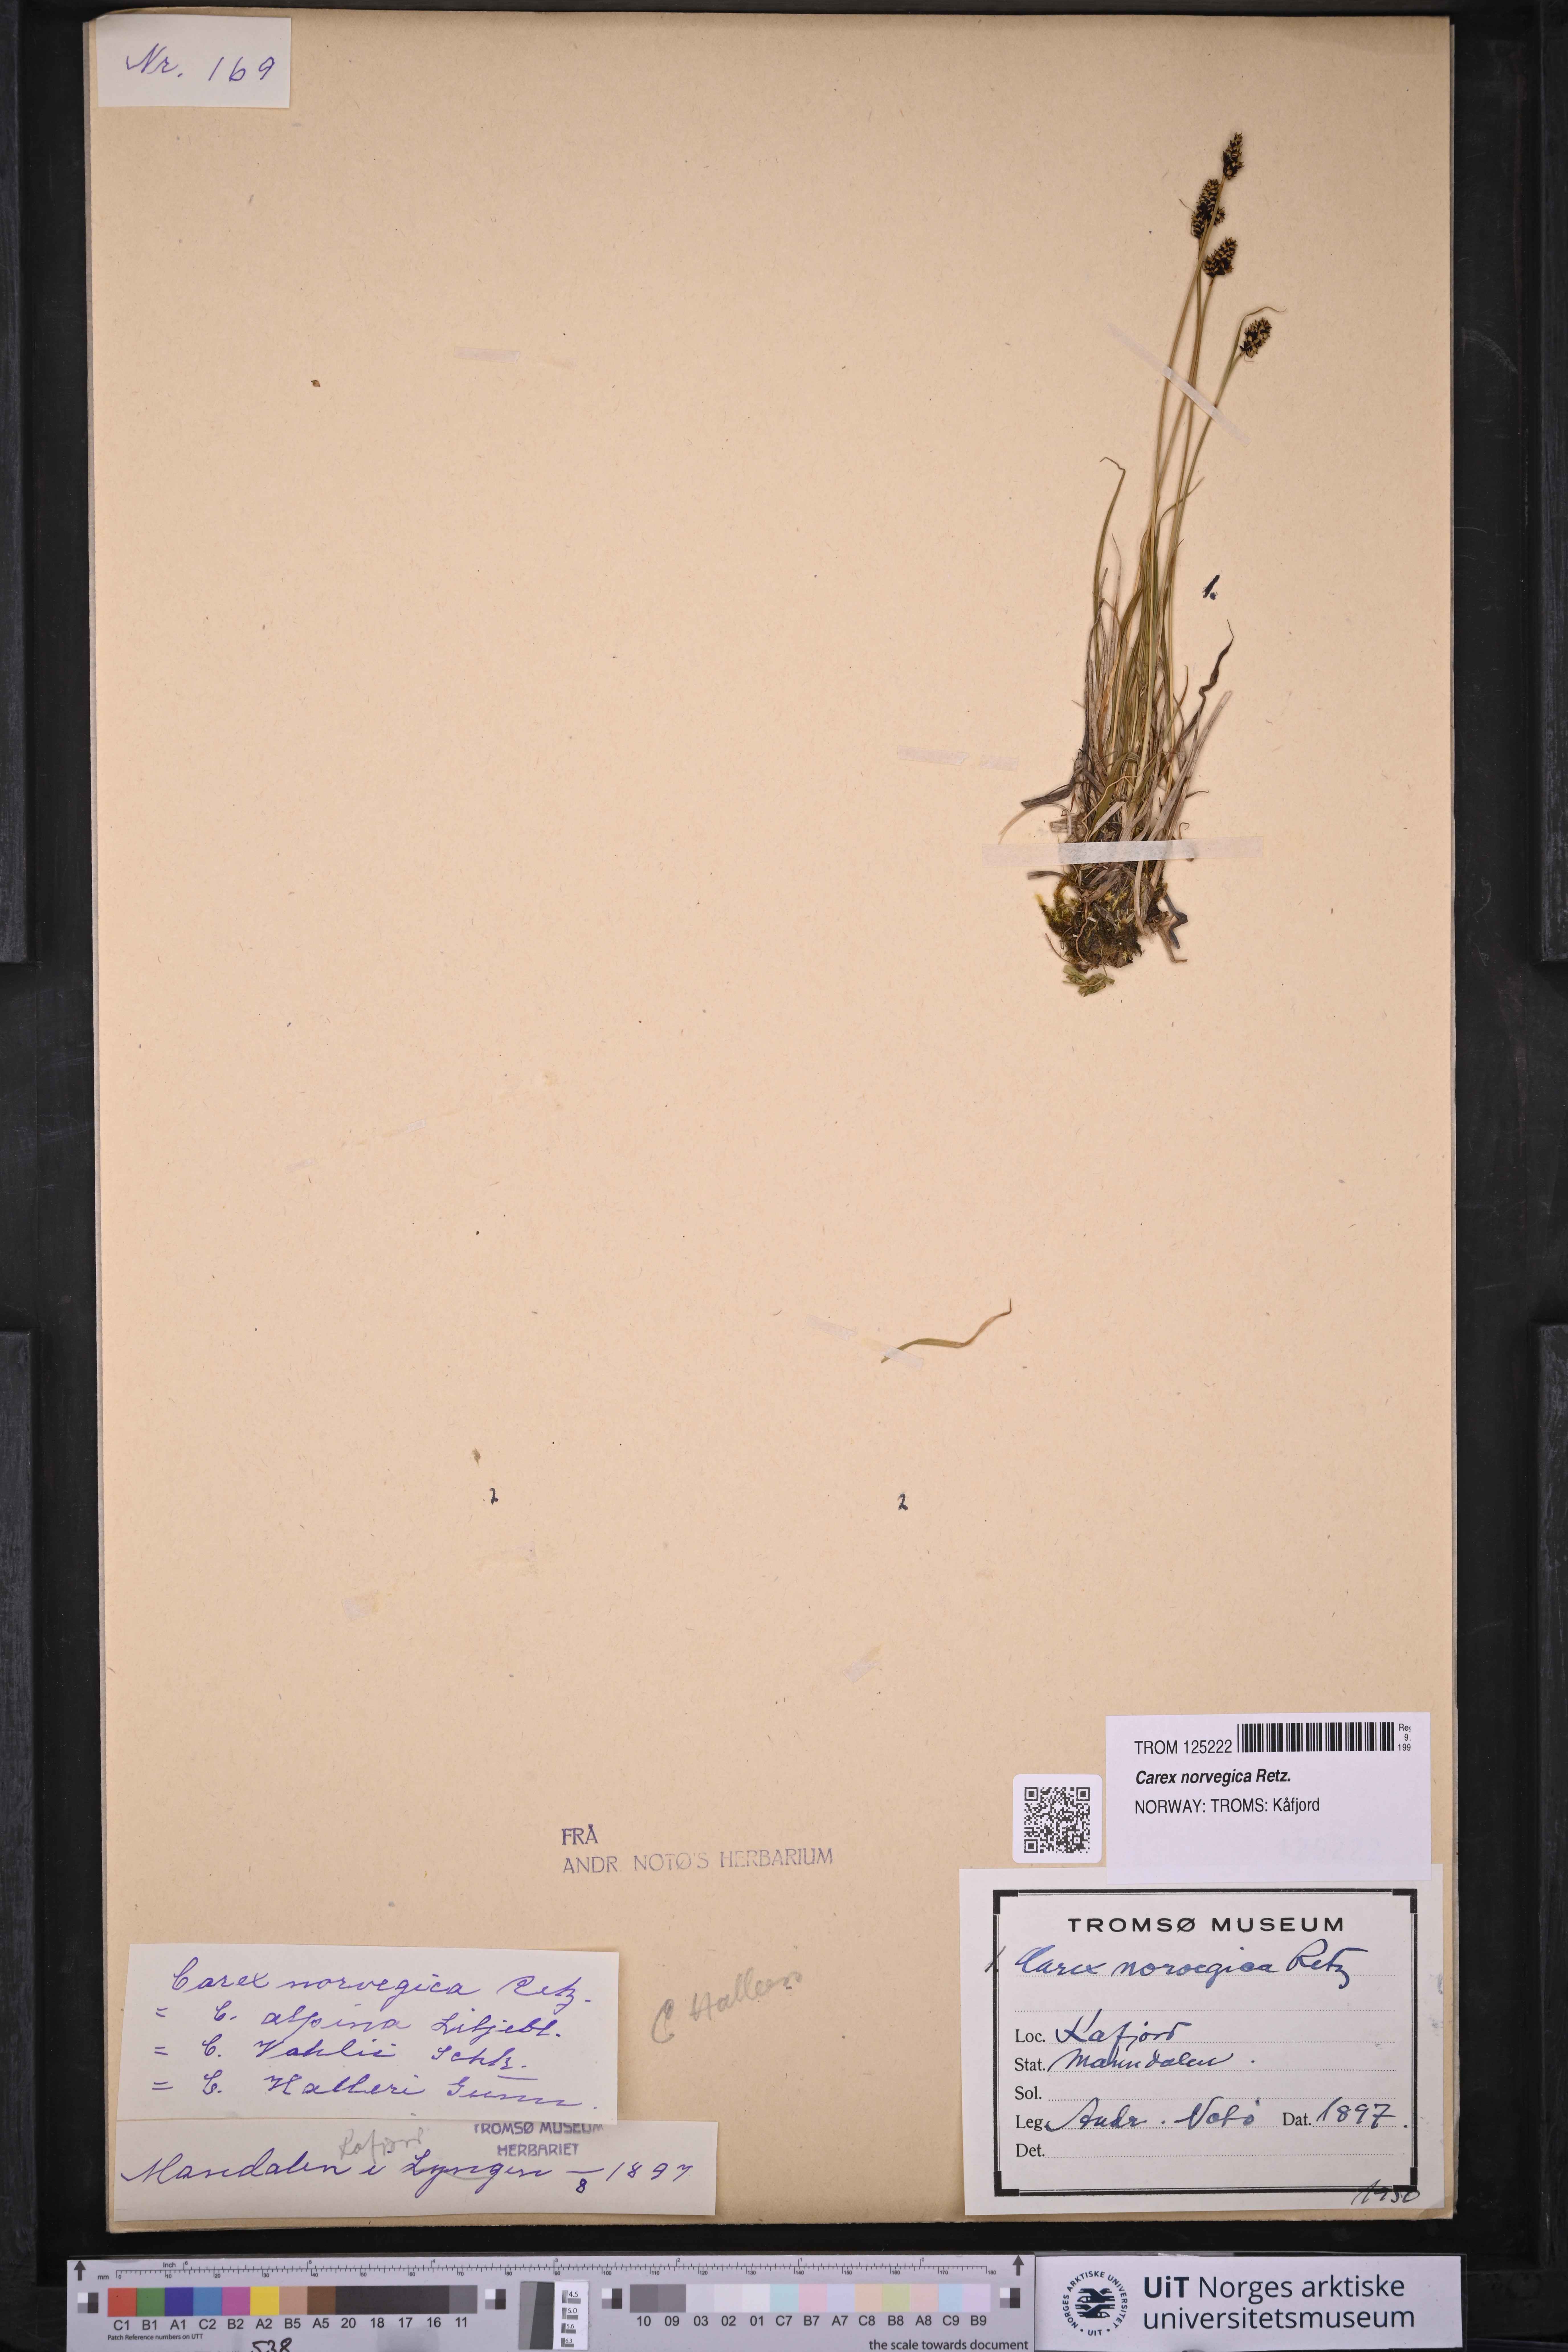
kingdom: Plantae
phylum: Tracheophyta
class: Liliopsida
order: Poales
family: Cyperaceae
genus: Carex
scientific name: Carex norvegica
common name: Close-headed alpine-sedge
